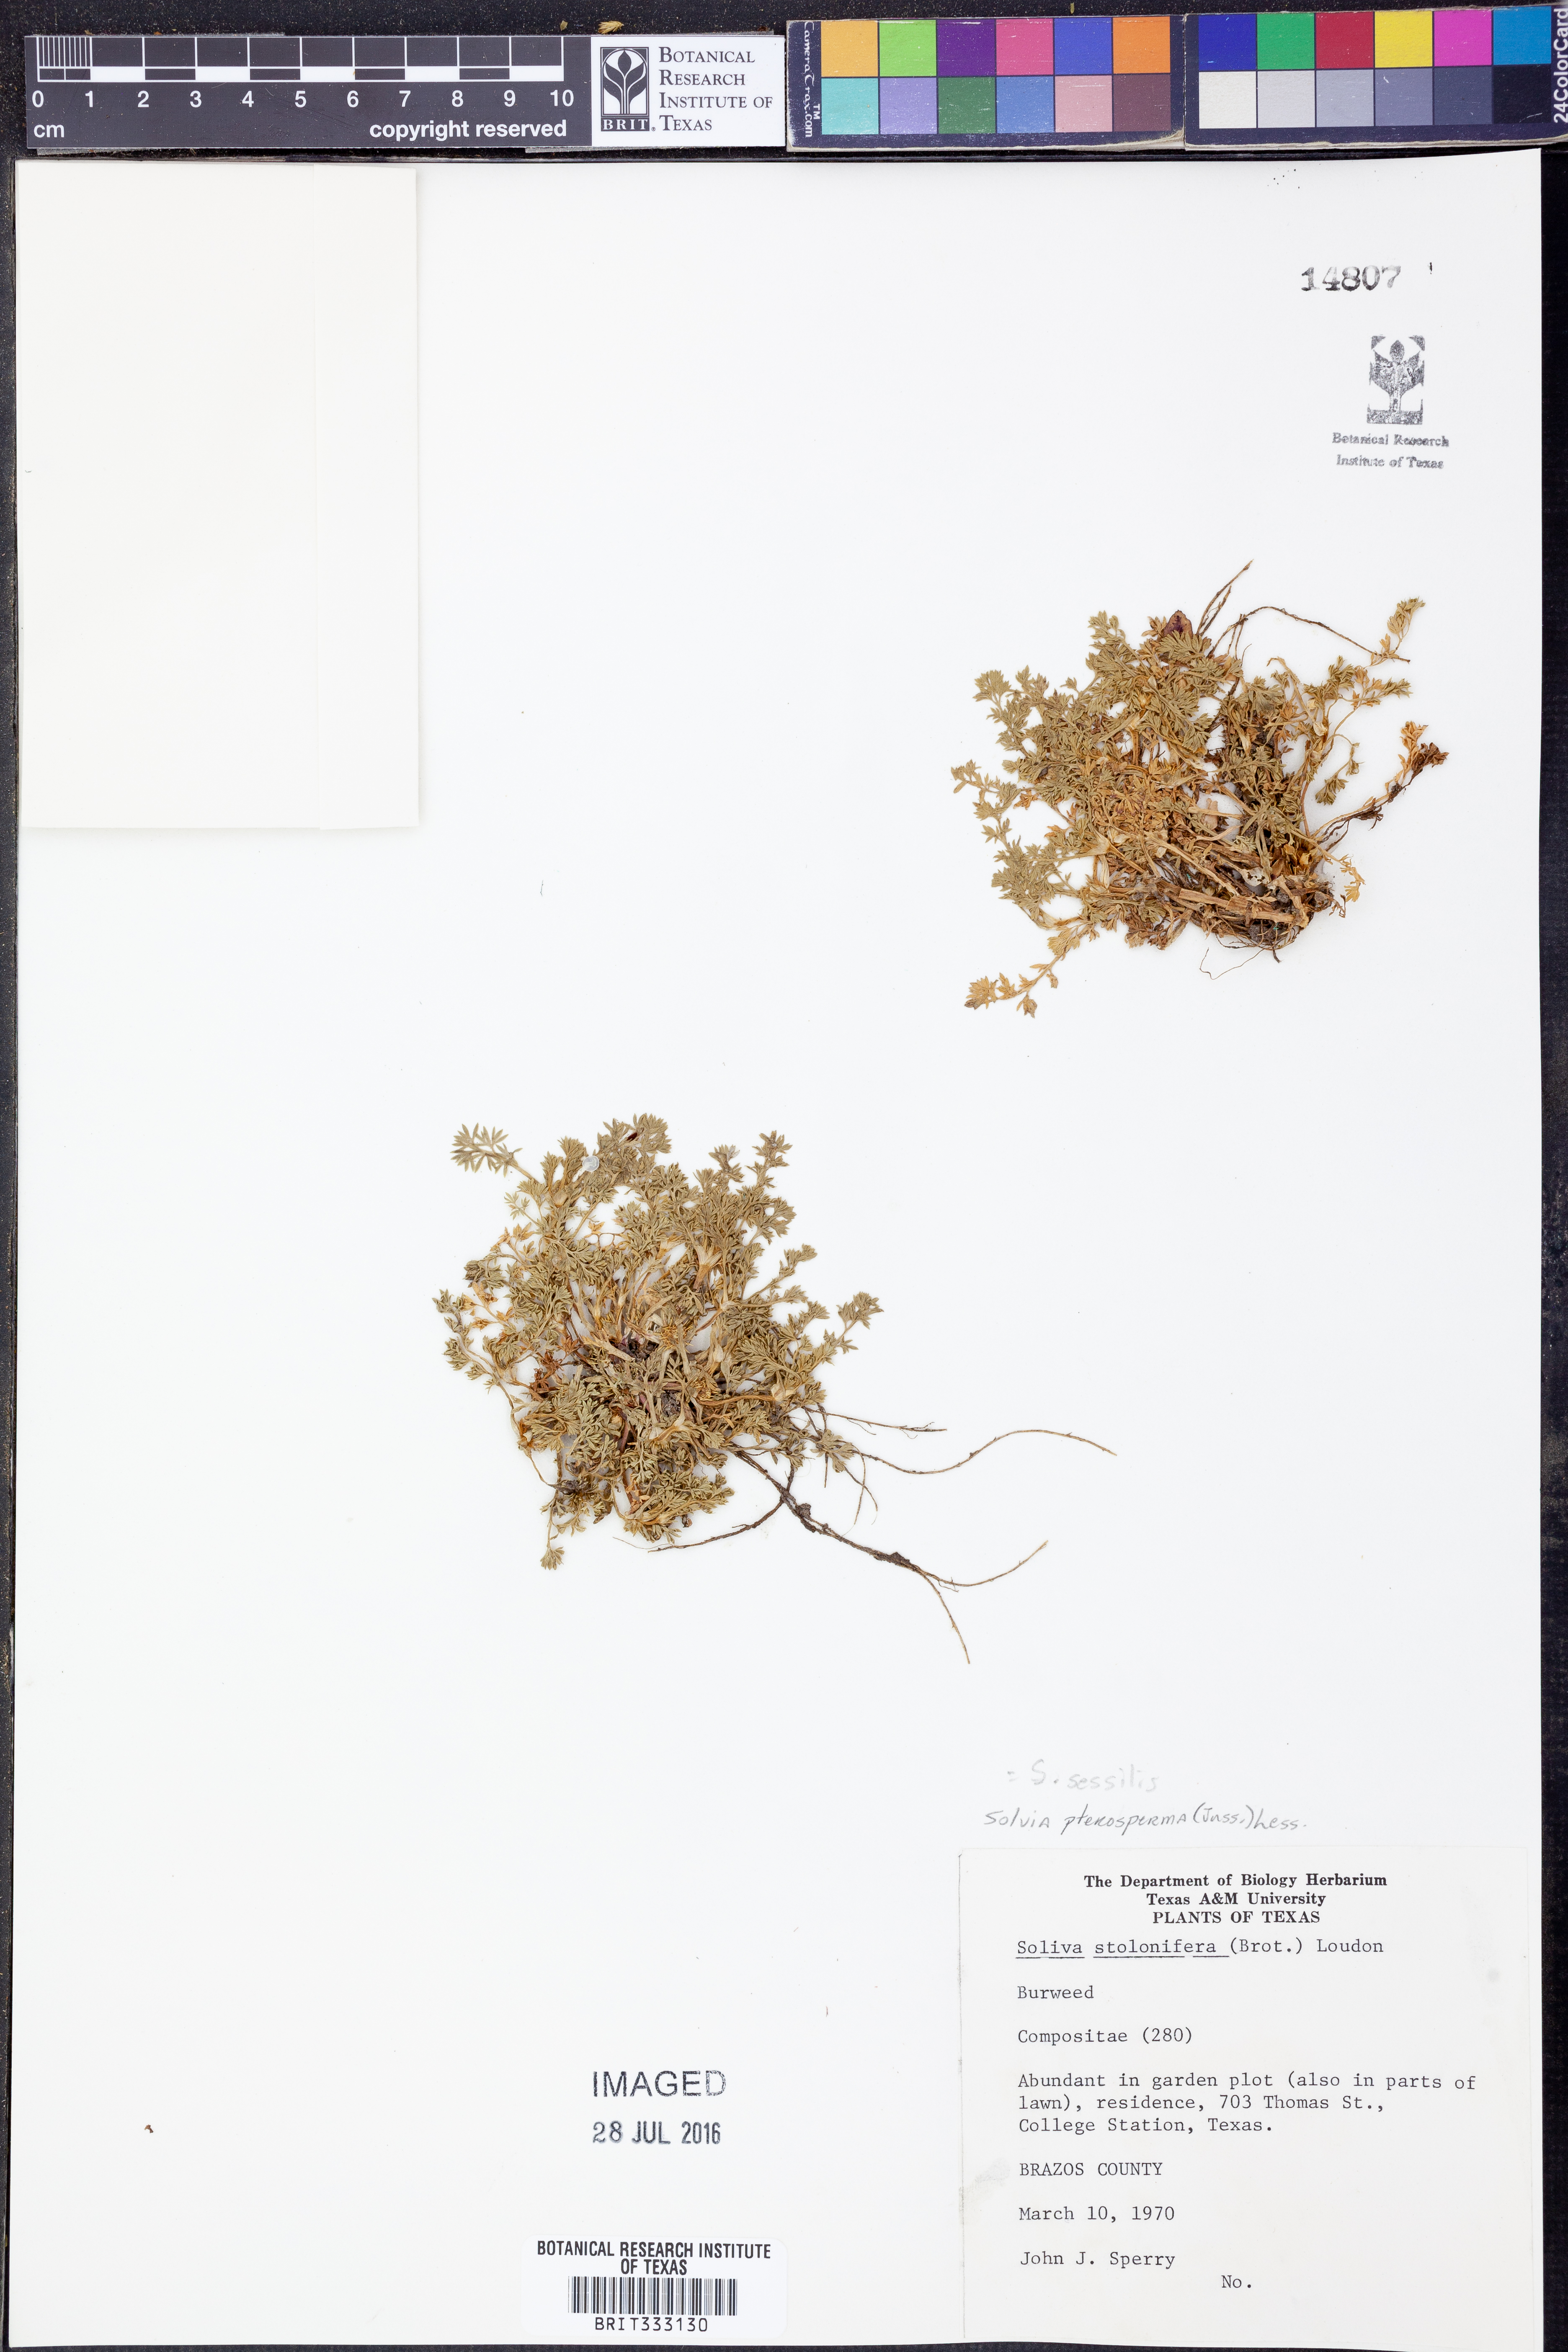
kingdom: Plantae
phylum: Tracheophyta
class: Magnoliopsida
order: Asterales
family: Asteraceae
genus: Soliva
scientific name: Soliva sessilis
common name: Field burrweed
